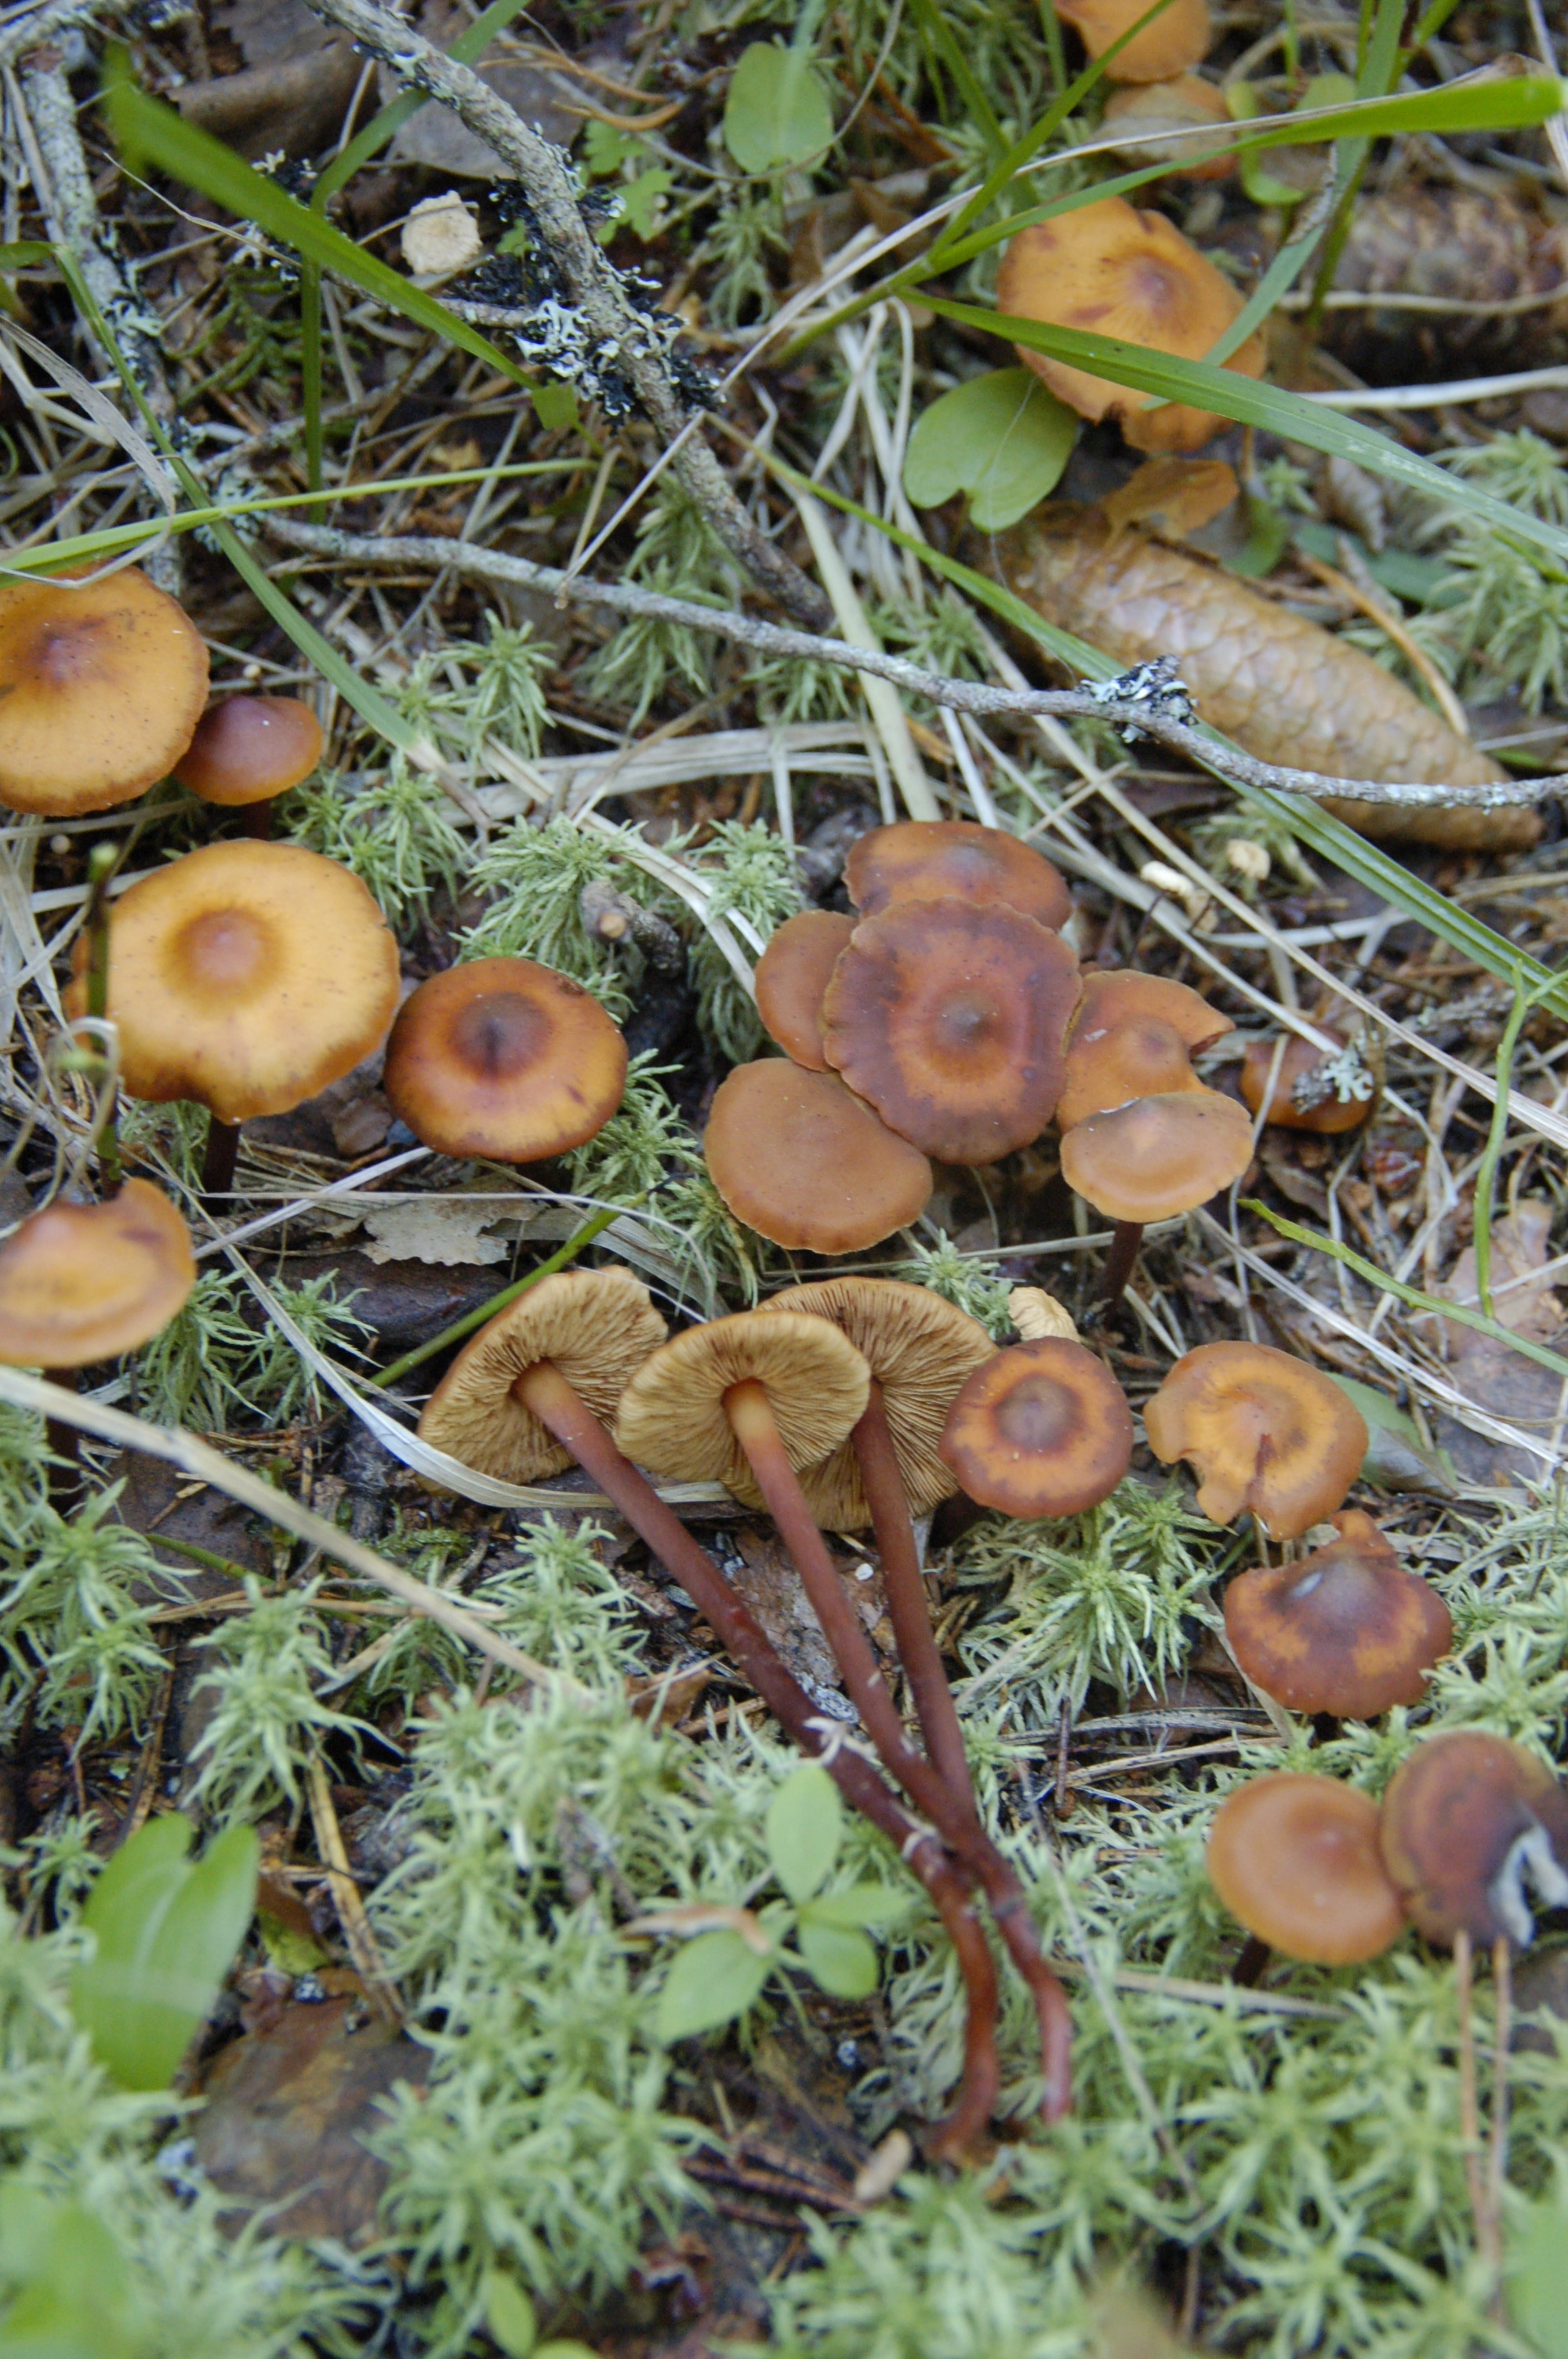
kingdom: Fungi
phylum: Basidiomycota
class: Agaricomycetes
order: Agaricales
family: Hymenogastraceae
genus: Phaeocollybia
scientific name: Phaeocollybia jennyae
